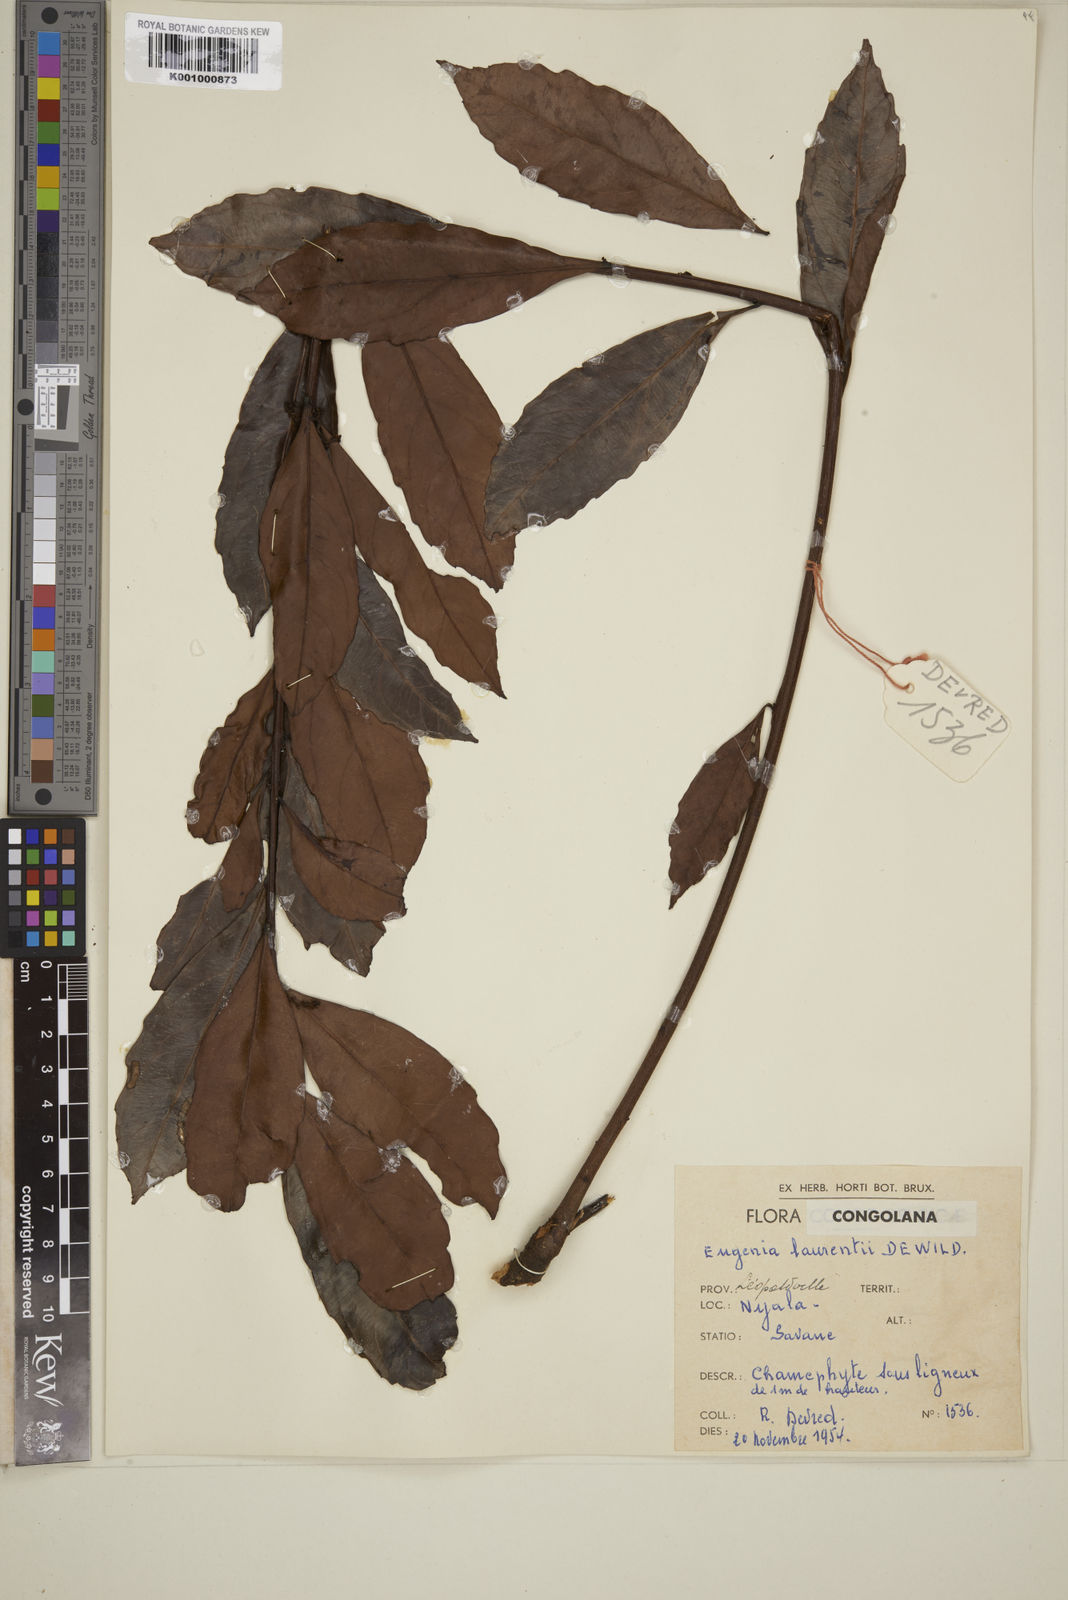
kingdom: Plantae
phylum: Tracheophyta
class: Magnoliopsida
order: Myrtales
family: Myrtaceae
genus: Eugenia
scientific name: Eugenia malangensis
